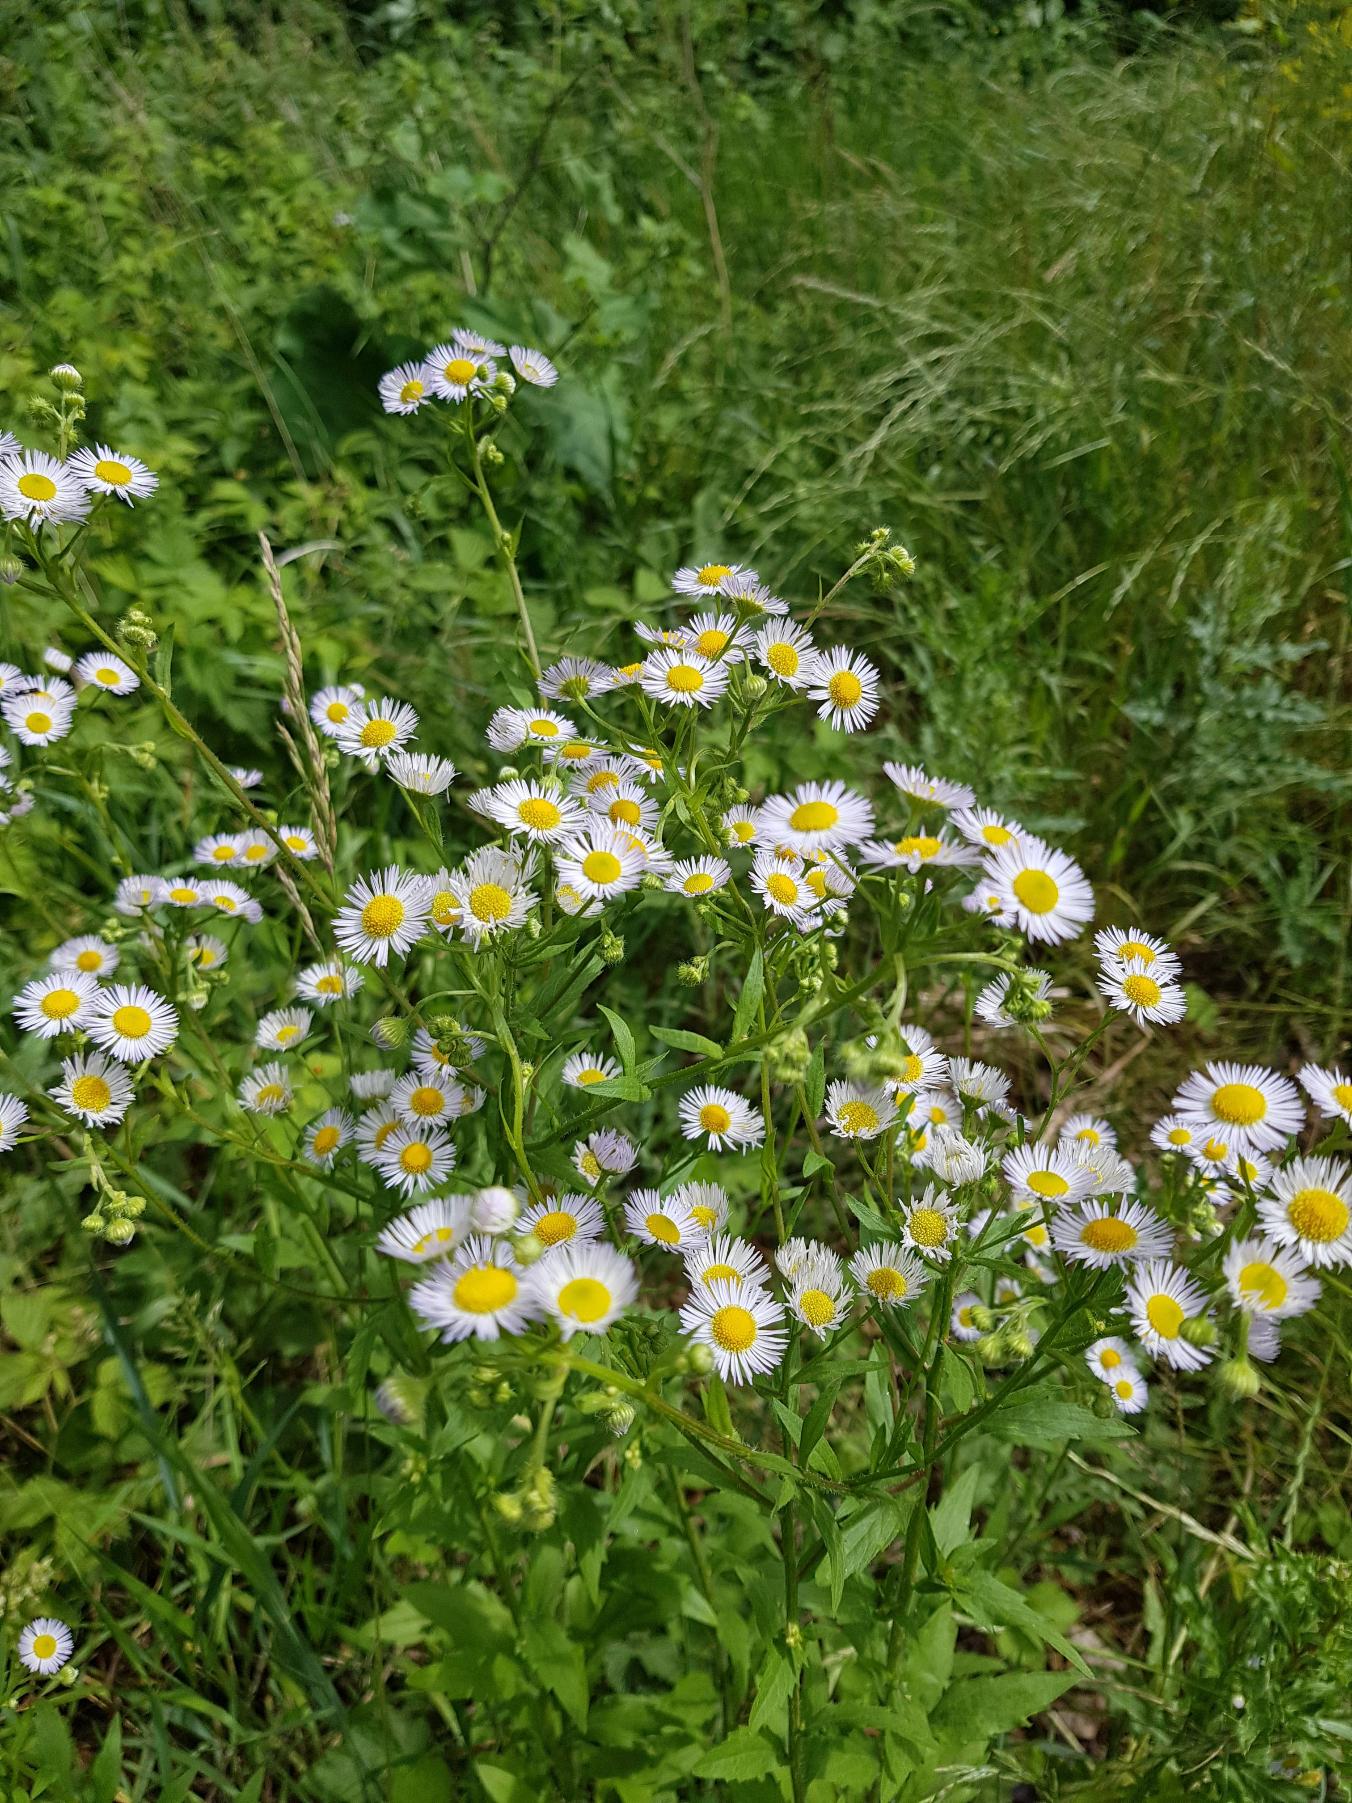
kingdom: Plantae
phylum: Tracheophyta
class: Magnoliopsida
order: Asterales
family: Asteraceae
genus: Erigeron
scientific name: Erigeron annuus
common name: Smalstråle
